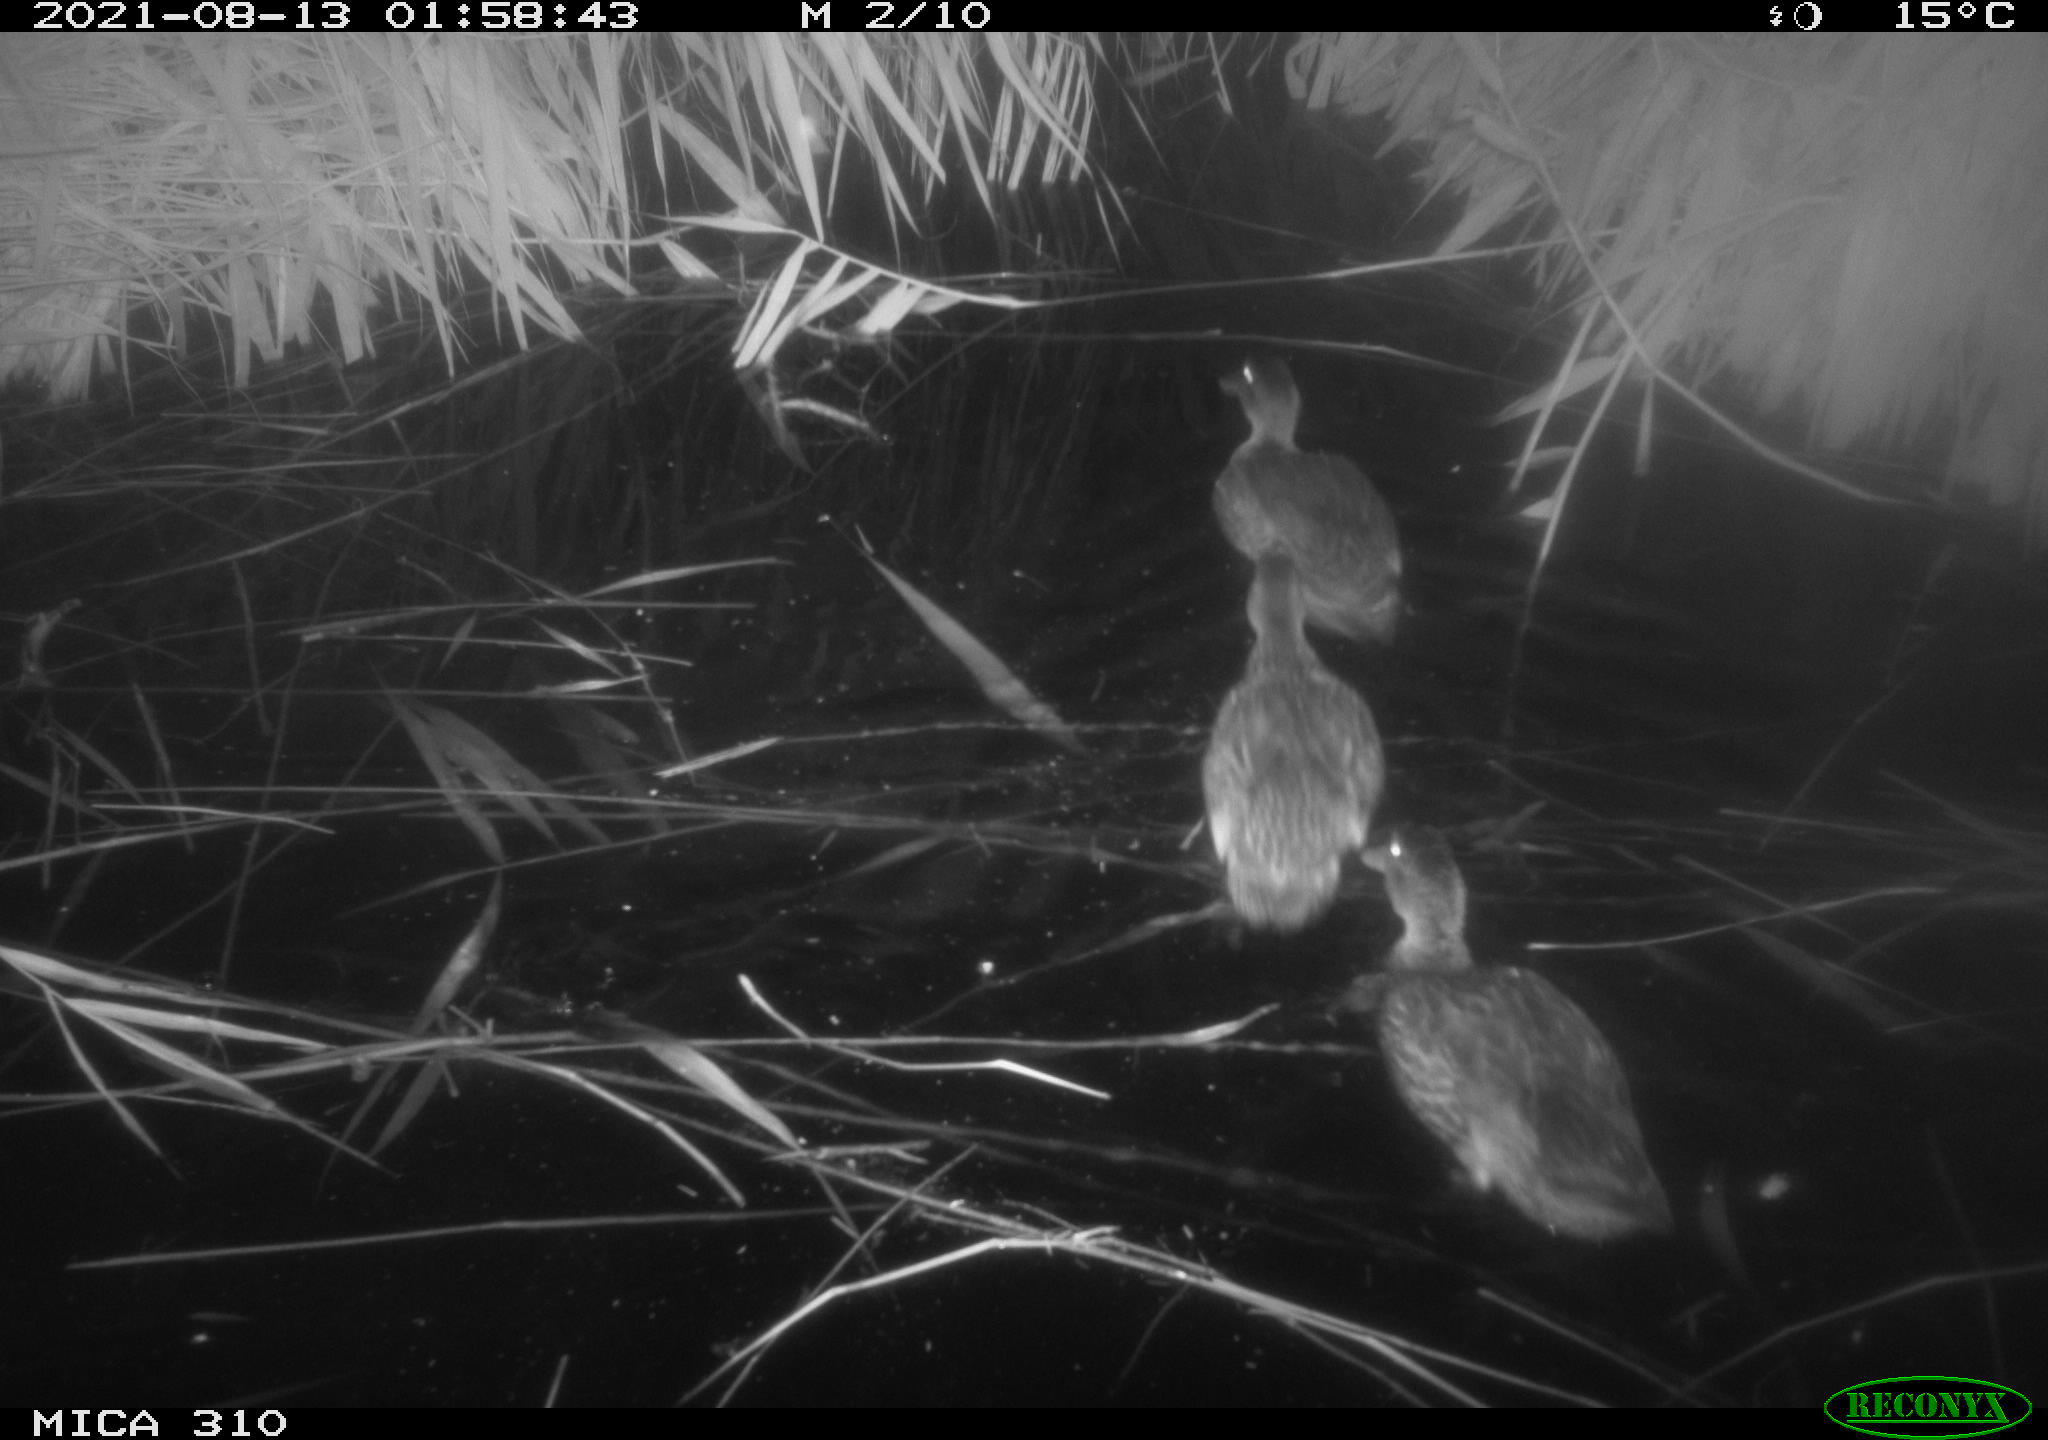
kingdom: Animalia
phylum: Chordata
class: Aves
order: Anseriformes
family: Anatidae
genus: Anas
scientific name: Anas platyrhynchos
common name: Mallard
